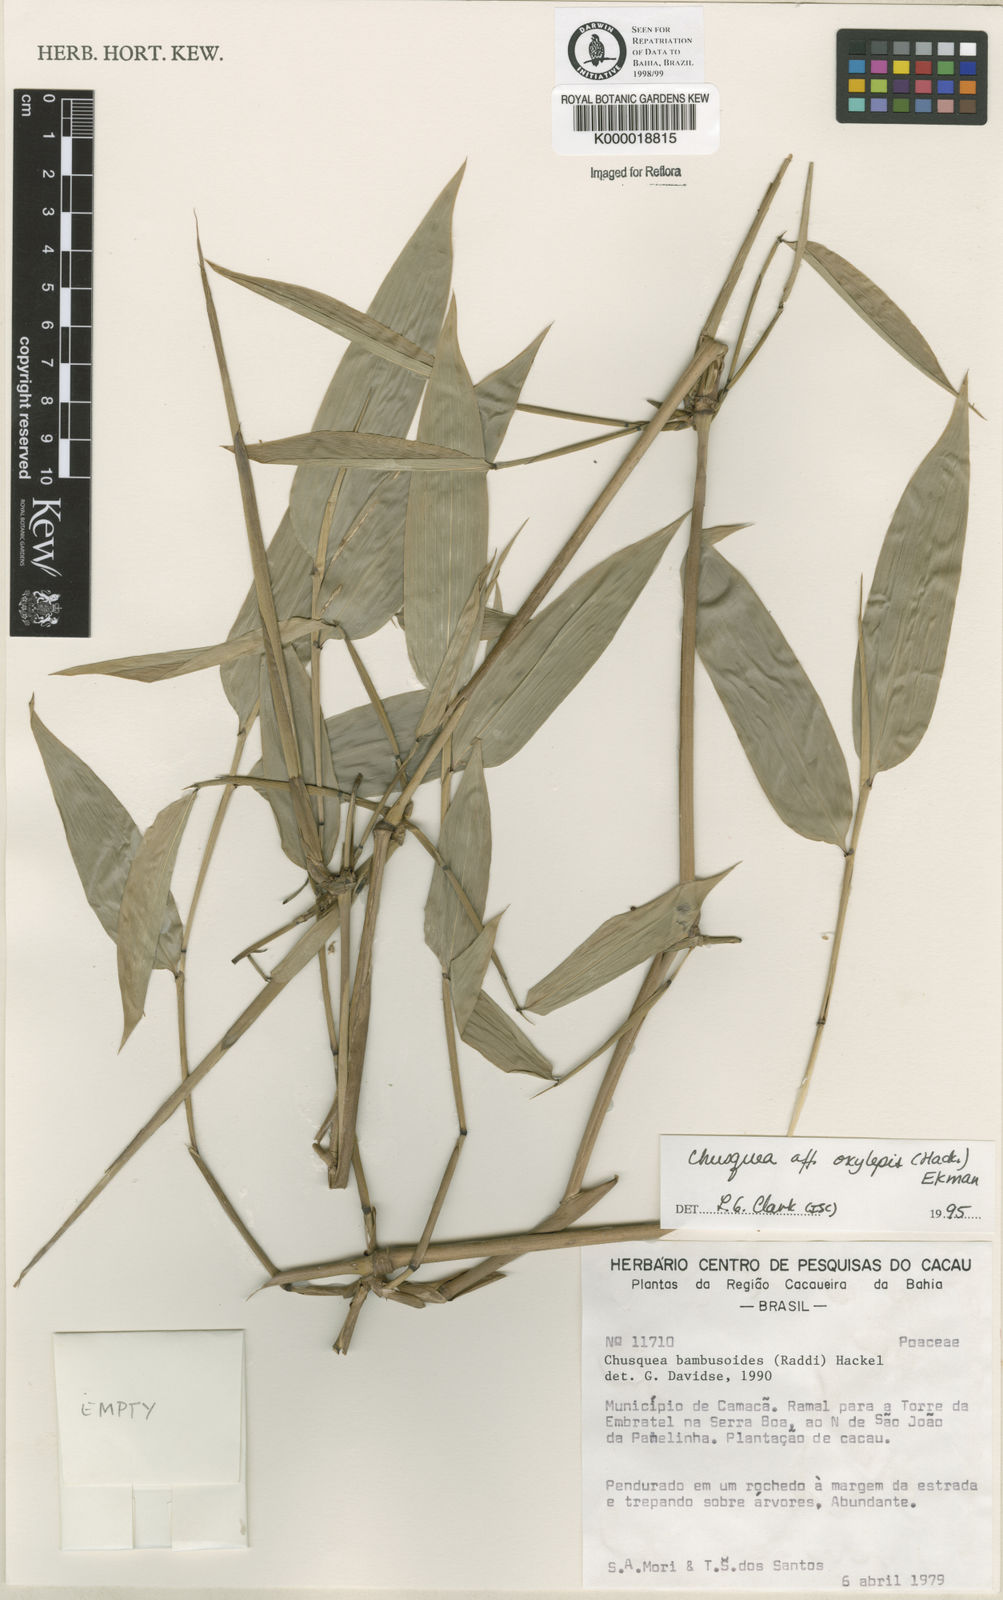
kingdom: Plantae
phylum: Tracheophyta
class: Liliopsida
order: Poales
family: Poaceae
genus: Chusquea
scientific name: Chusquea oxylepis
